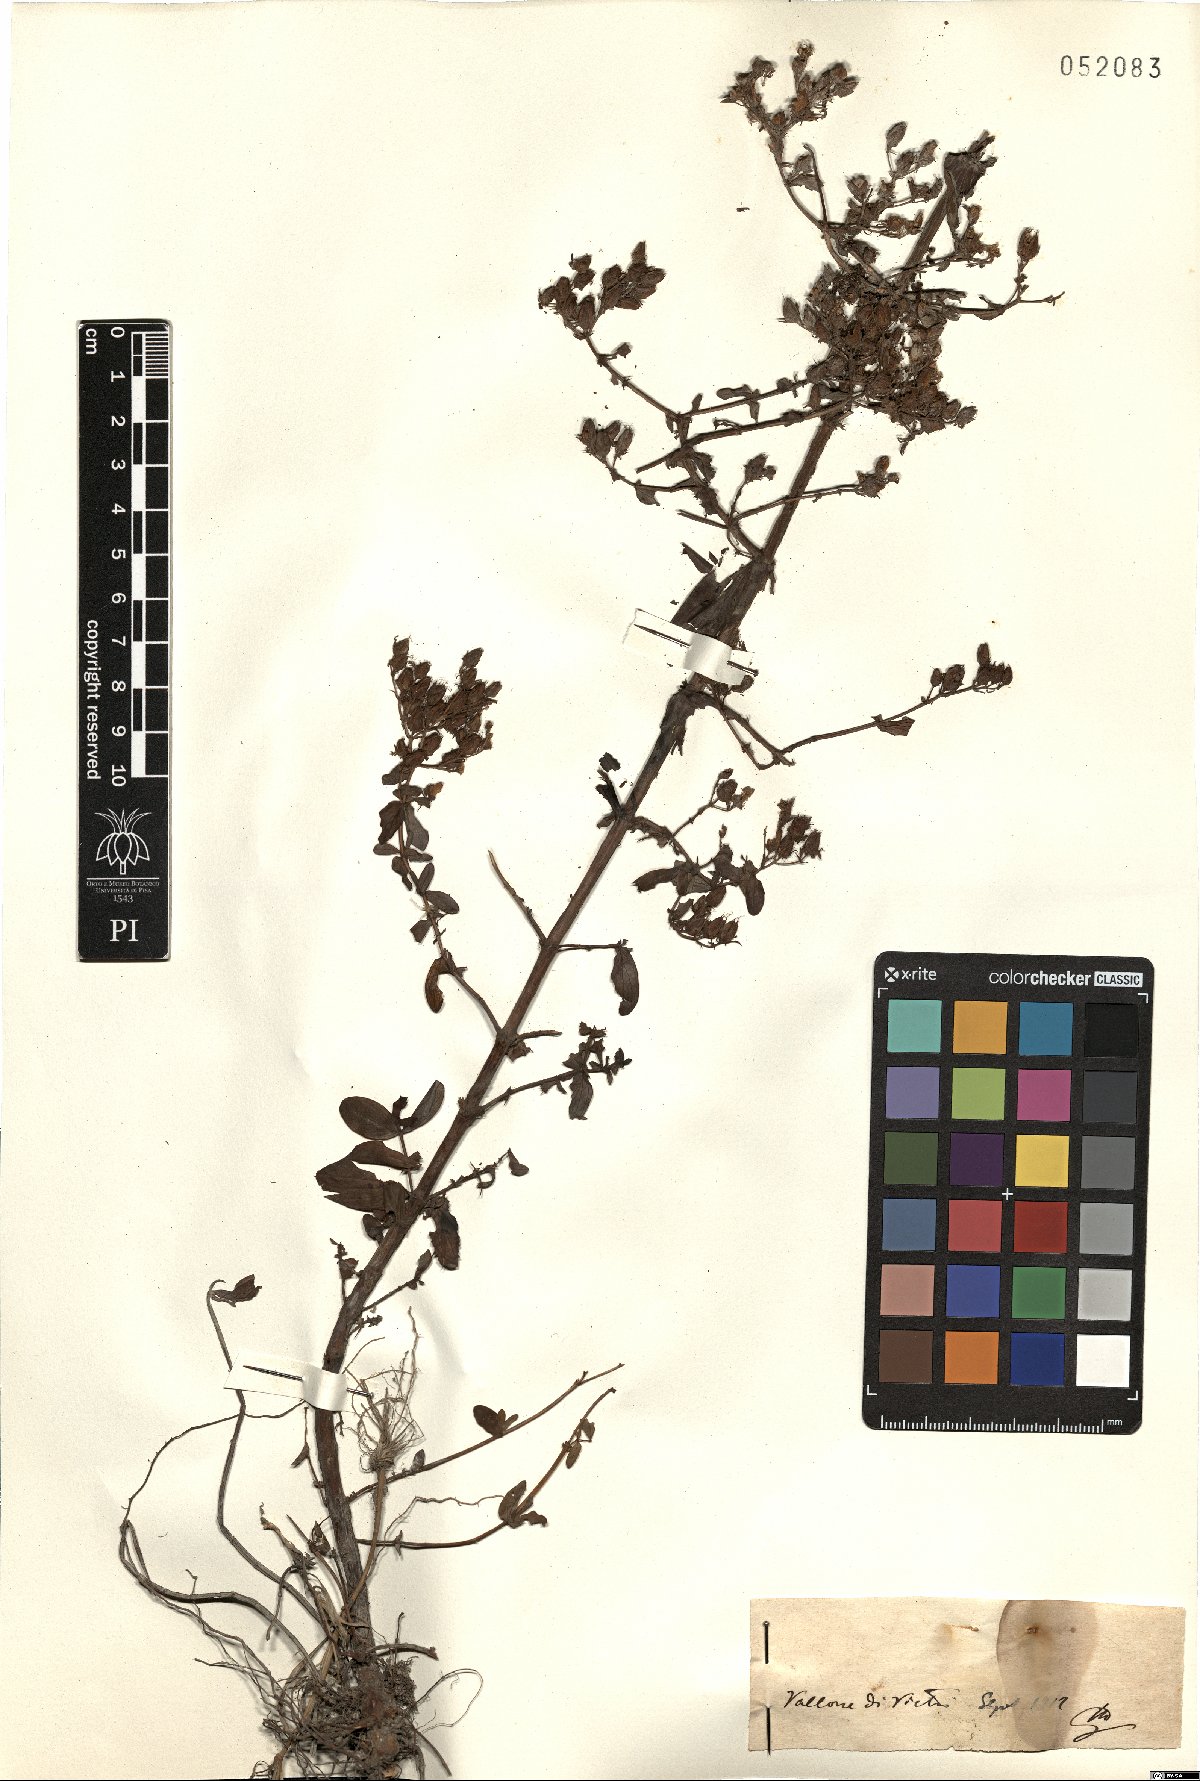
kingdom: Plantae
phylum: Tracheophyta
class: Magnoliopsida
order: Malpighiales
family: Hypericaceae
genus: Hypericum
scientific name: Hypericum
